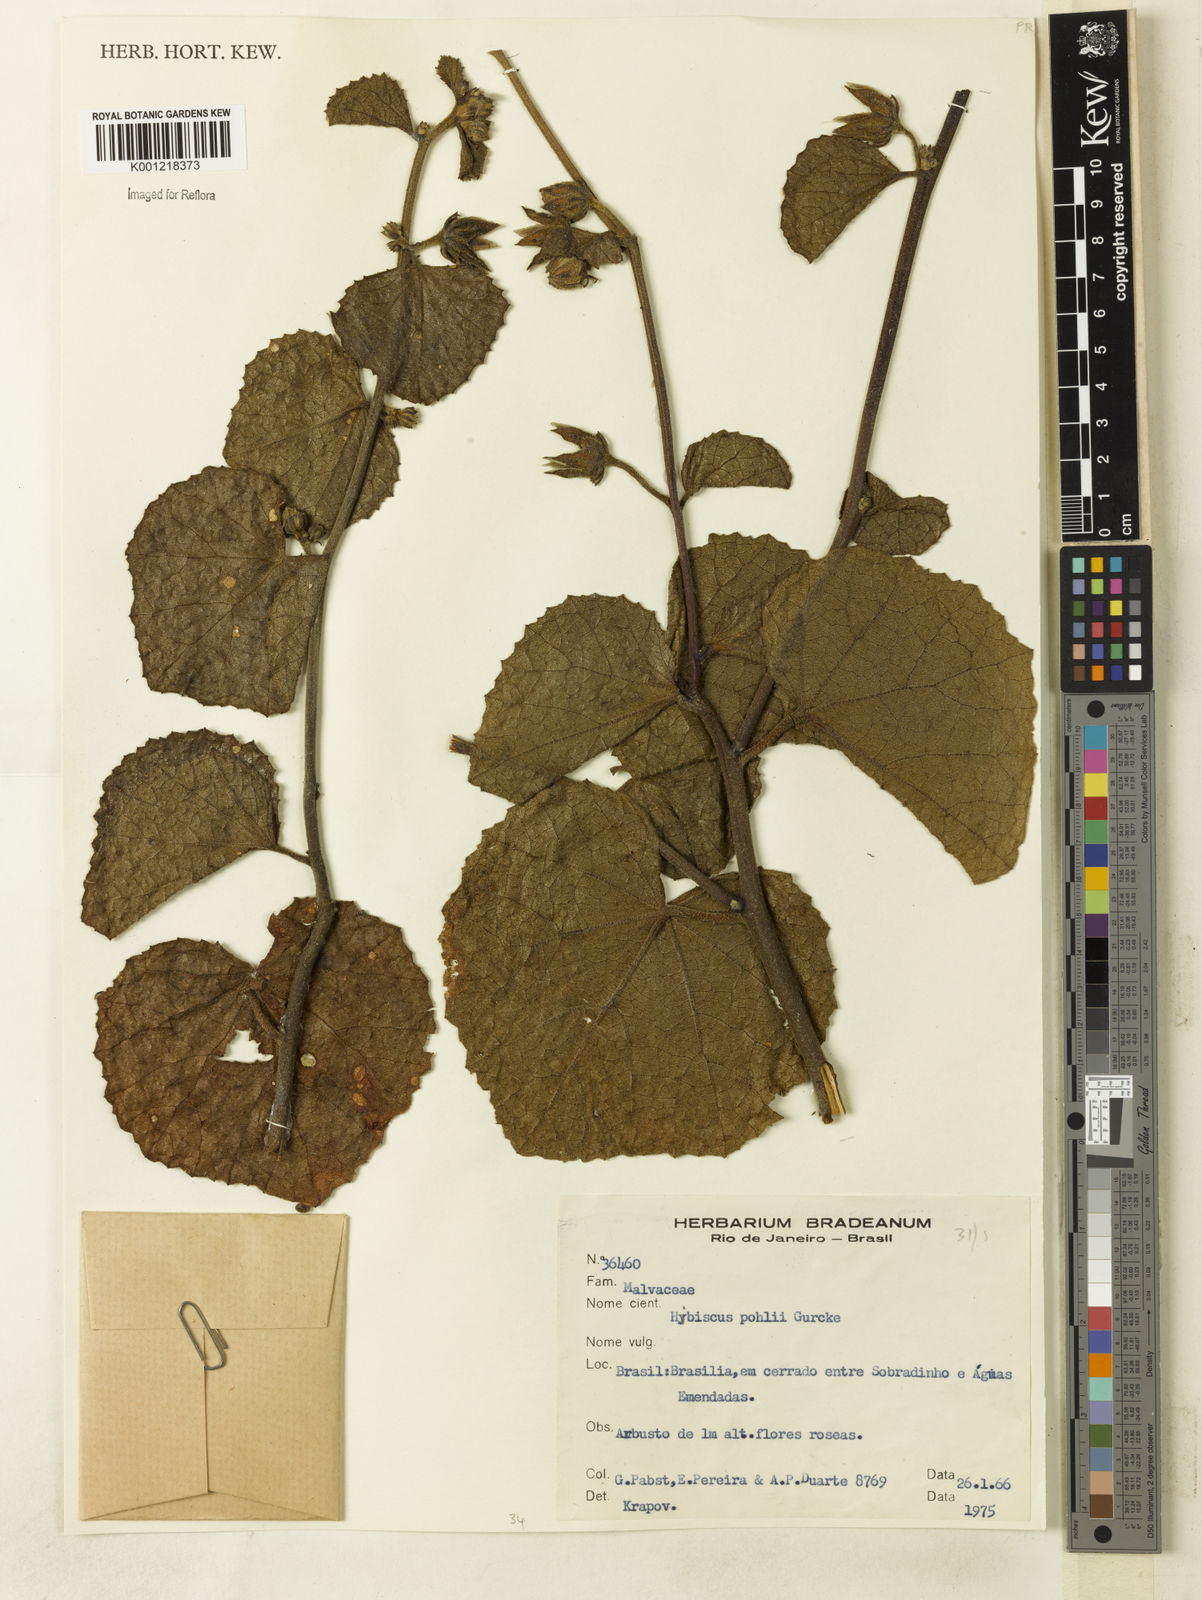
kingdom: Plantae
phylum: Tracheophyta
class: Magnoliopsida
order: Malvales
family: Malvaceae
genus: Hibiscus
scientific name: Hibiscus
